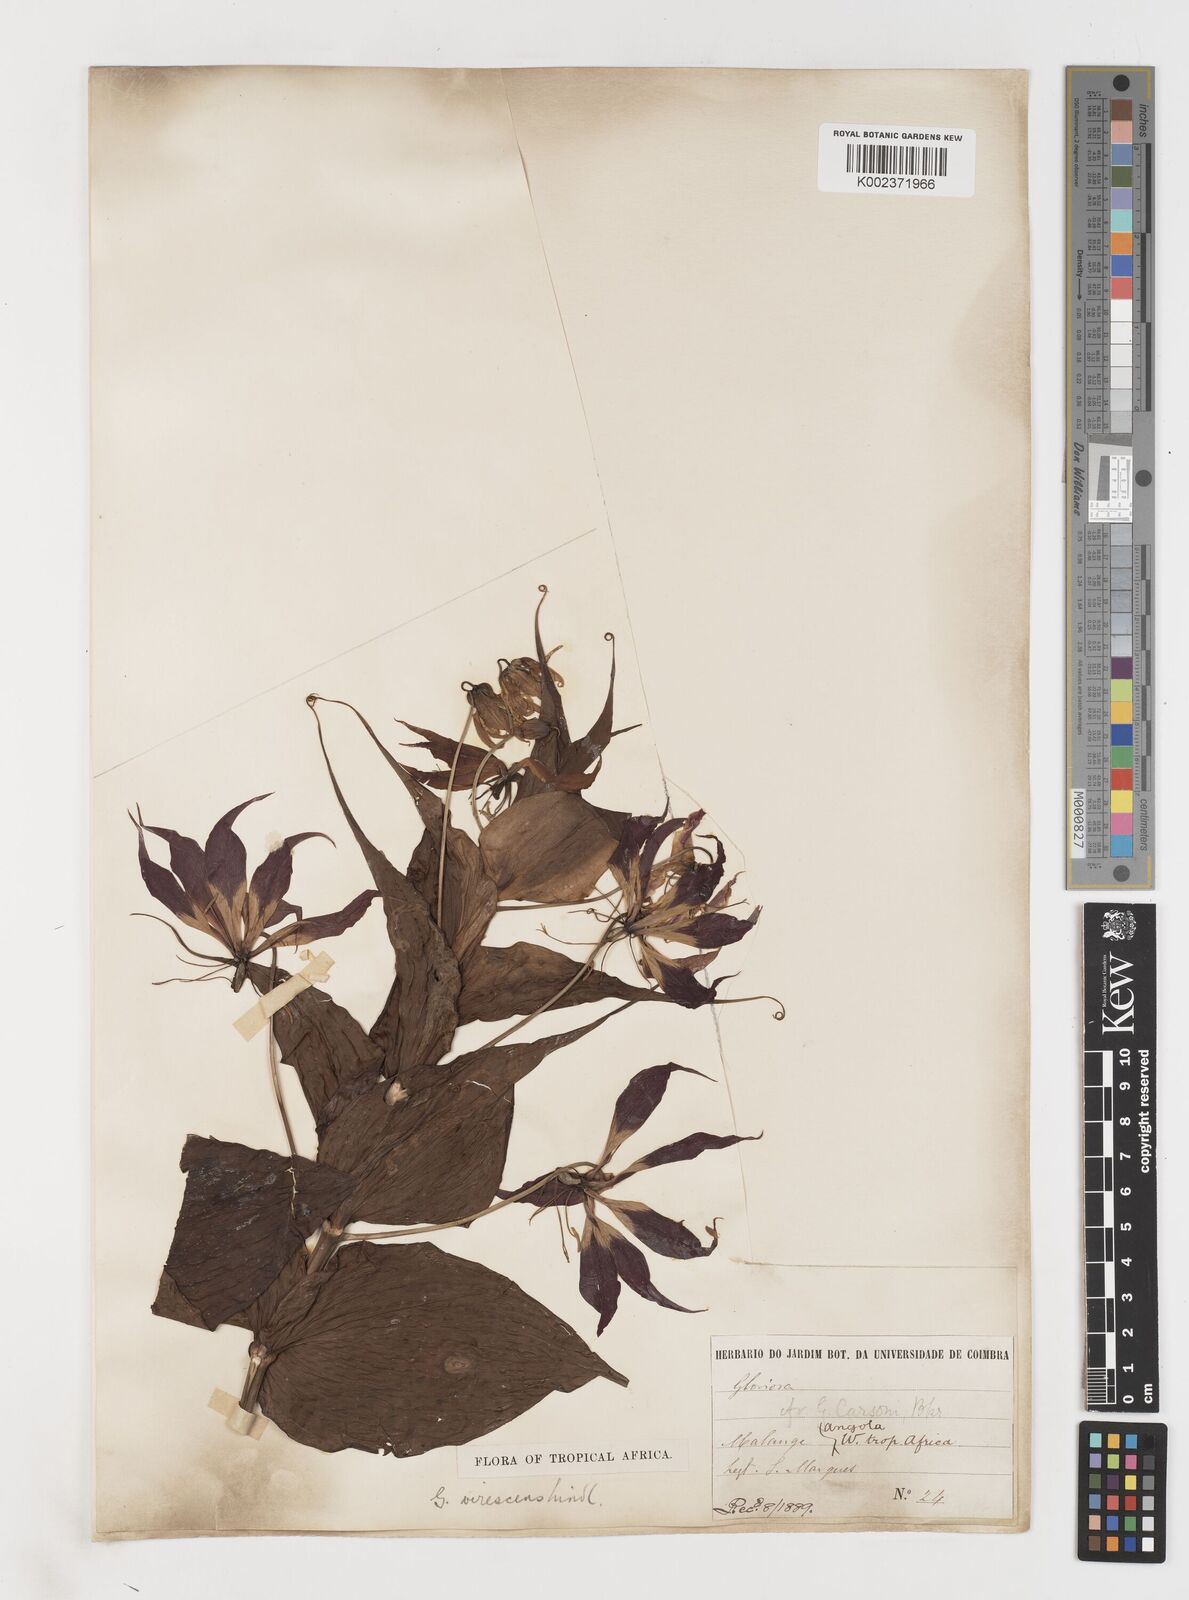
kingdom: Plantae
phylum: Tracheophyta
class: Liliopsida
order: Liliales
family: Colchicaceae
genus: Gloriosa
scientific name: Gloriosa simplex
